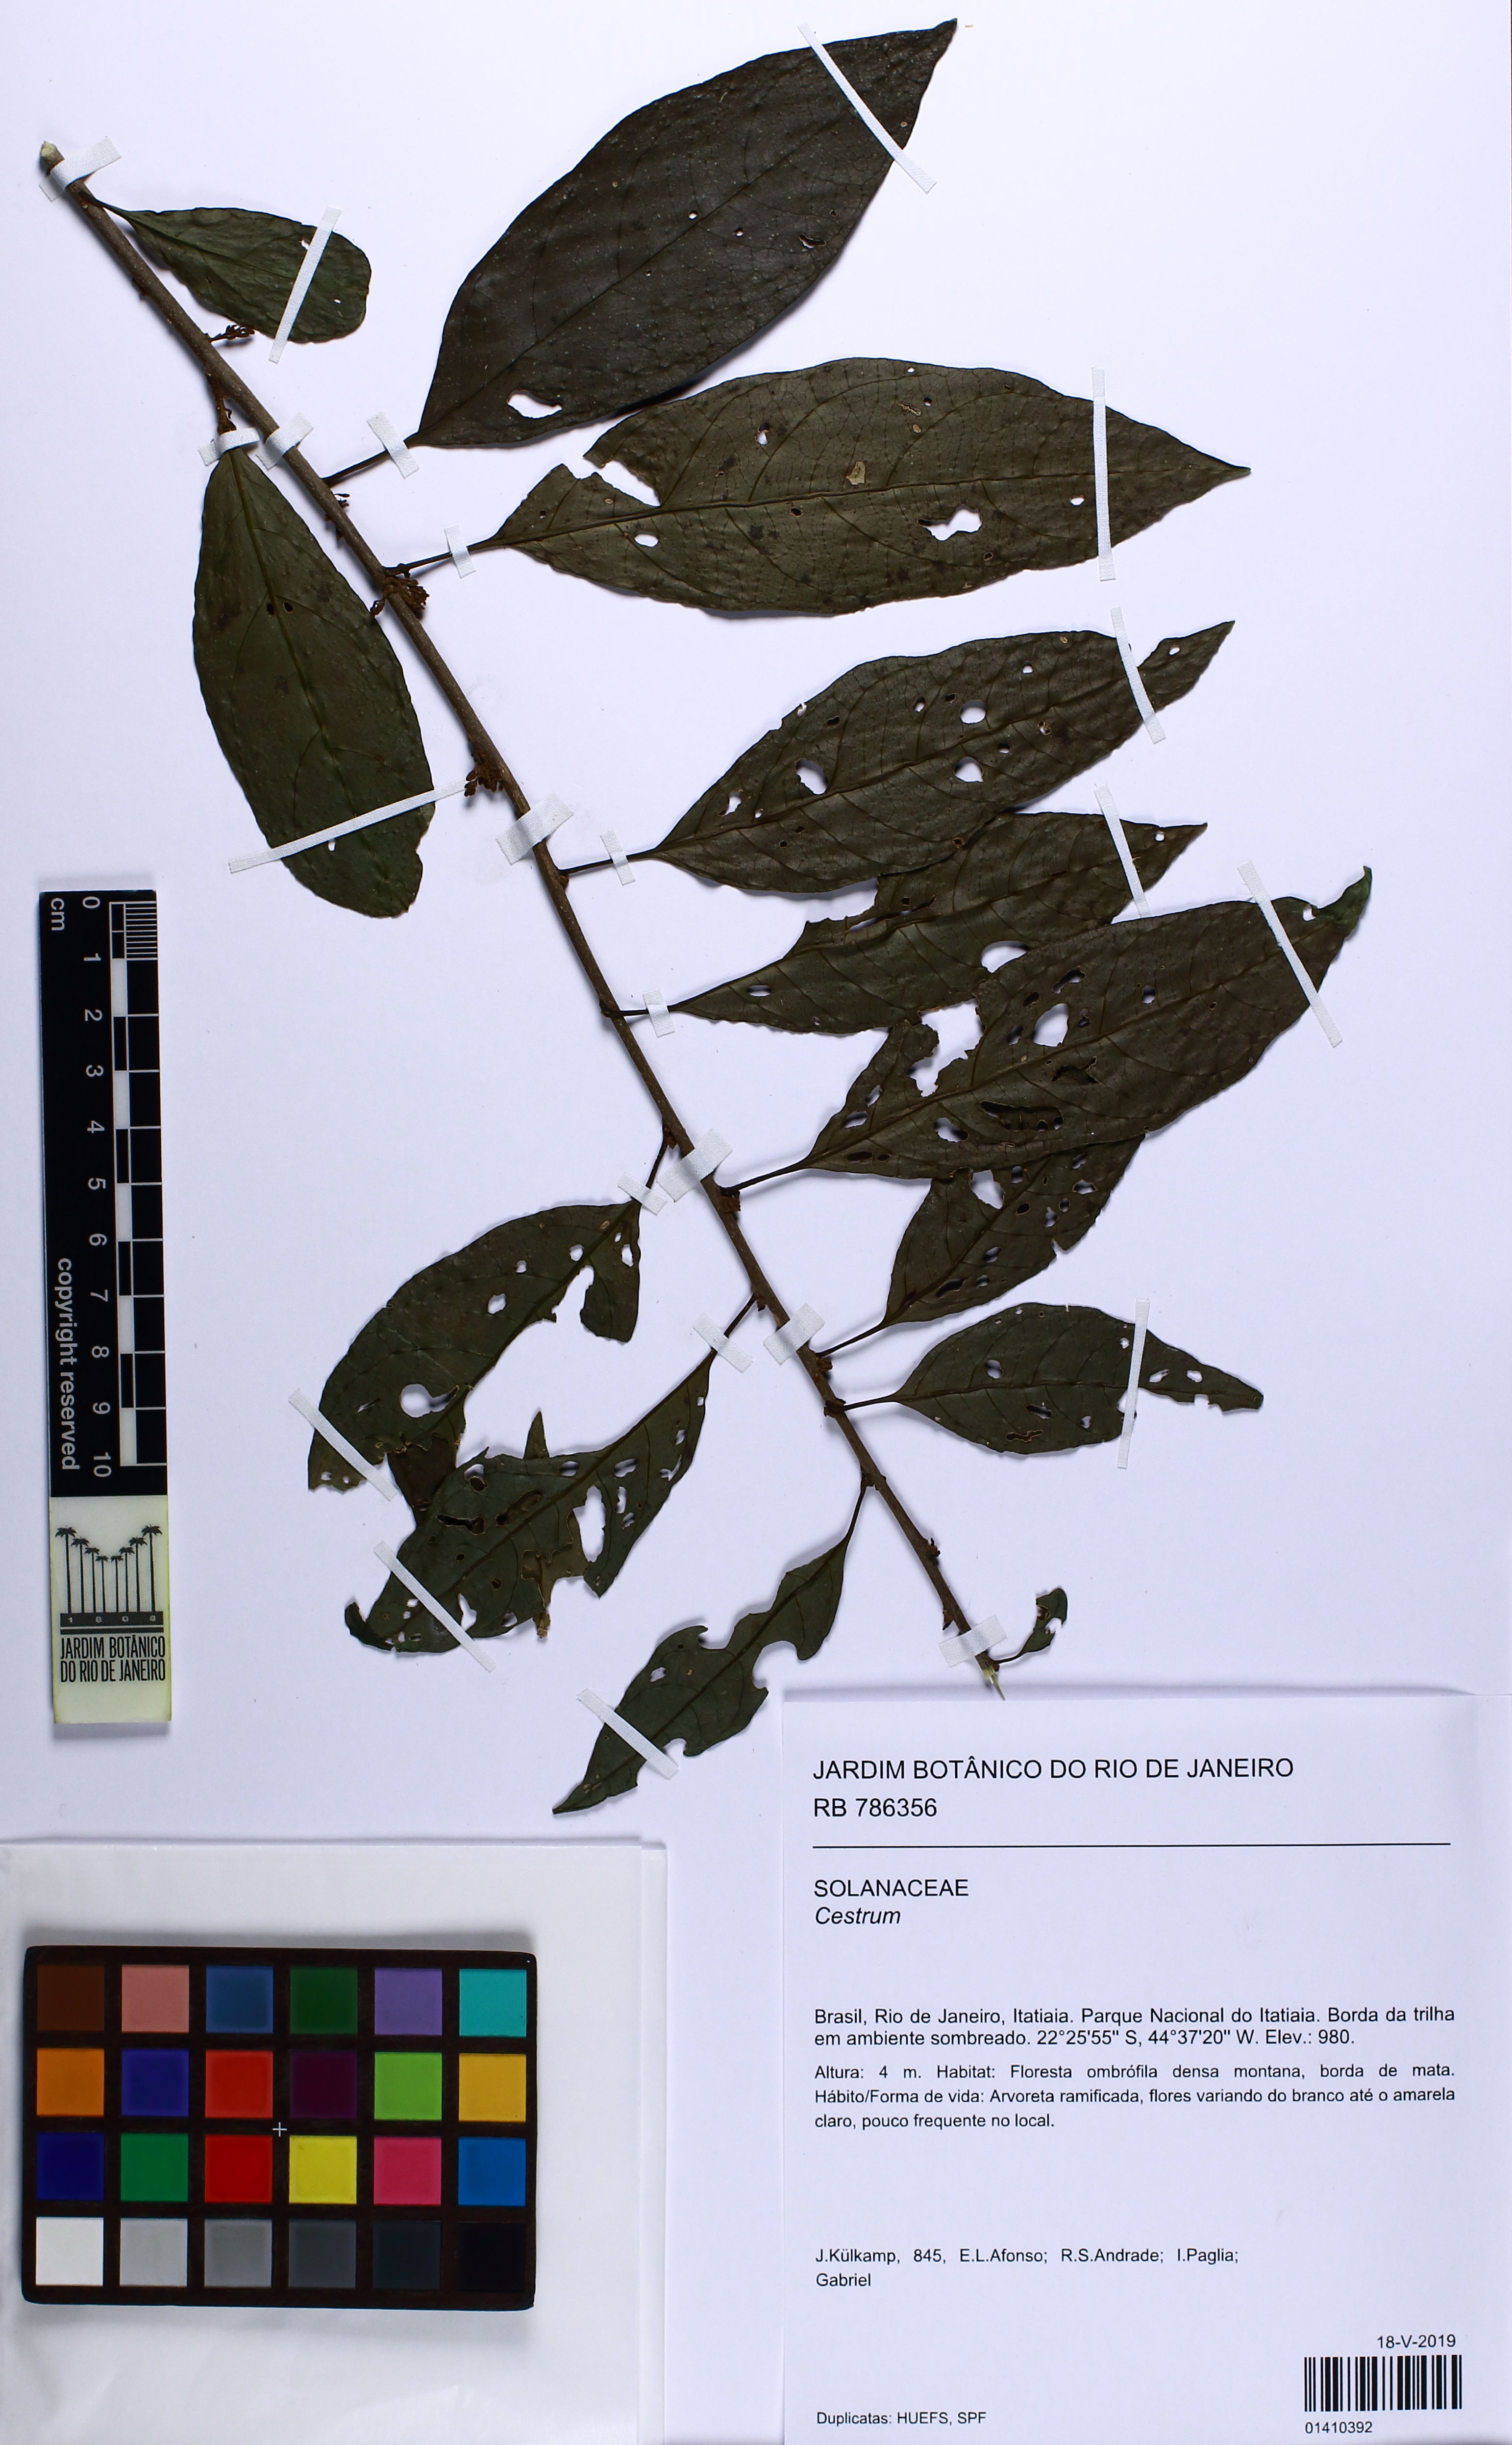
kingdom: Plantae
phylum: Tracheophyta
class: Magnoliopsida
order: Solanales
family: Solanaceae
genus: Cestrum
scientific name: Cestrum
